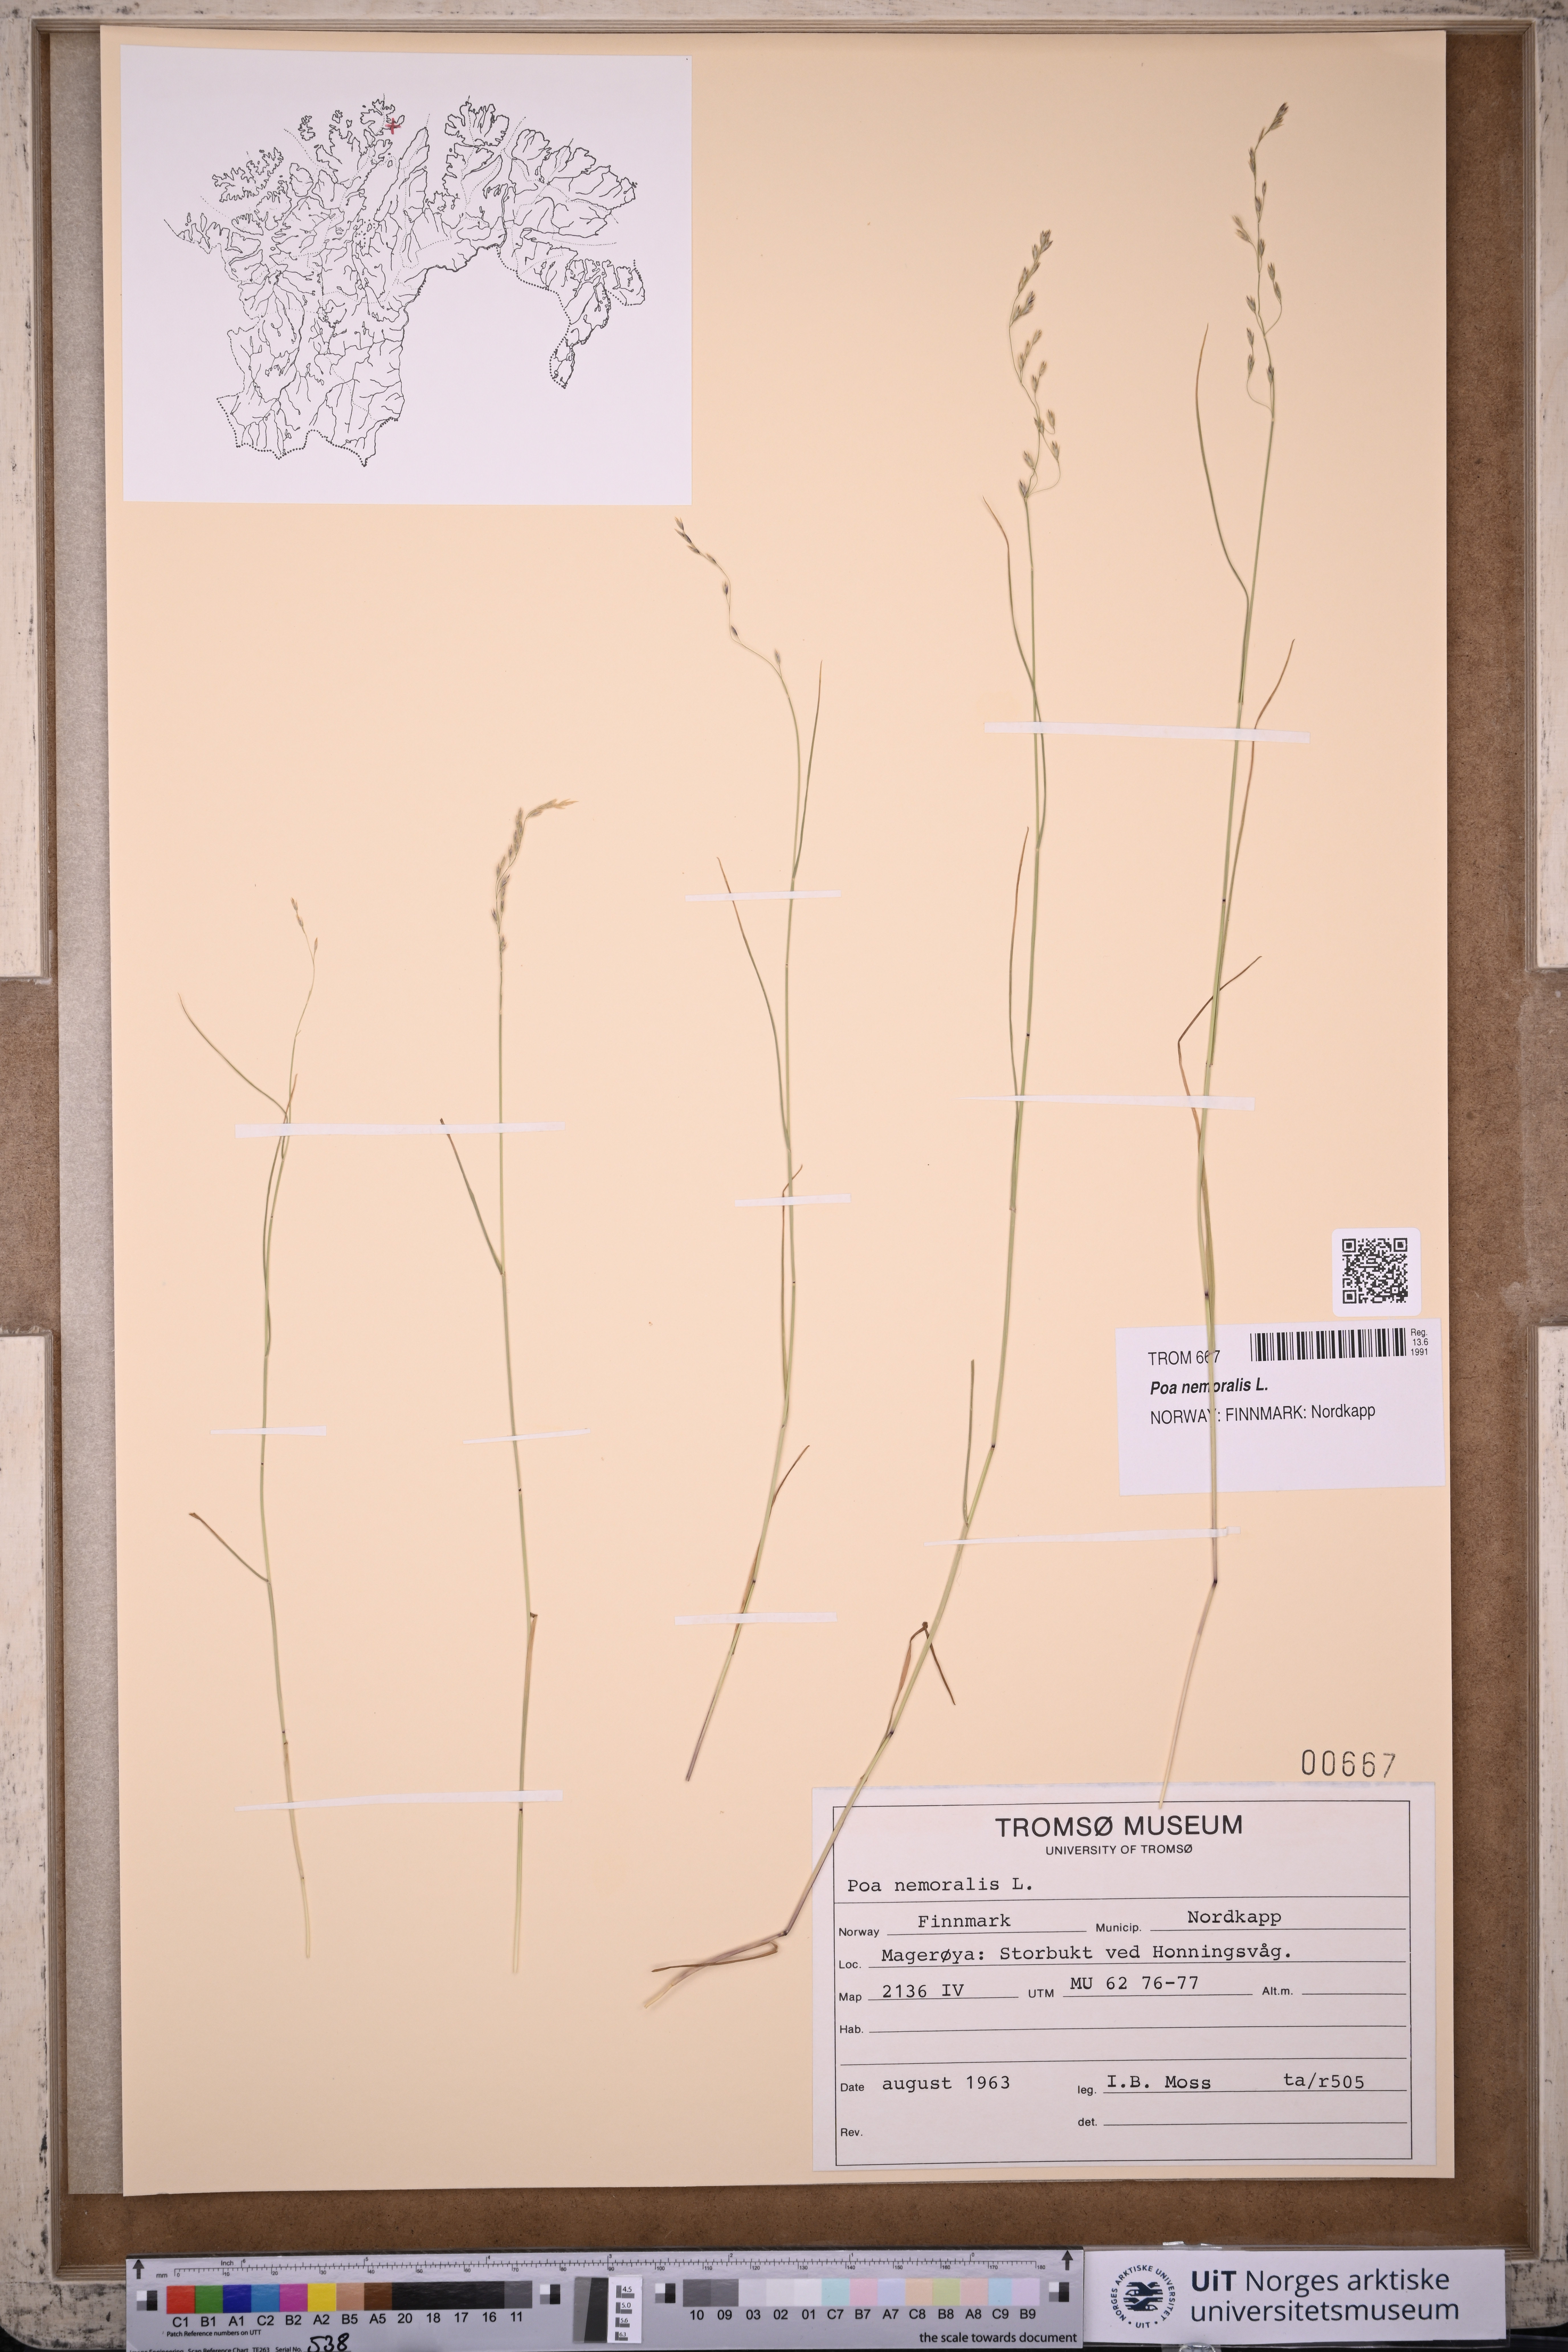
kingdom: Plantae
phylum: Tracheophyta
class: Liliopsida
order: Poales
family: Poaceae
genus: Poa
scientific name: Poa nemoralis
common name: Wood bluegrass
